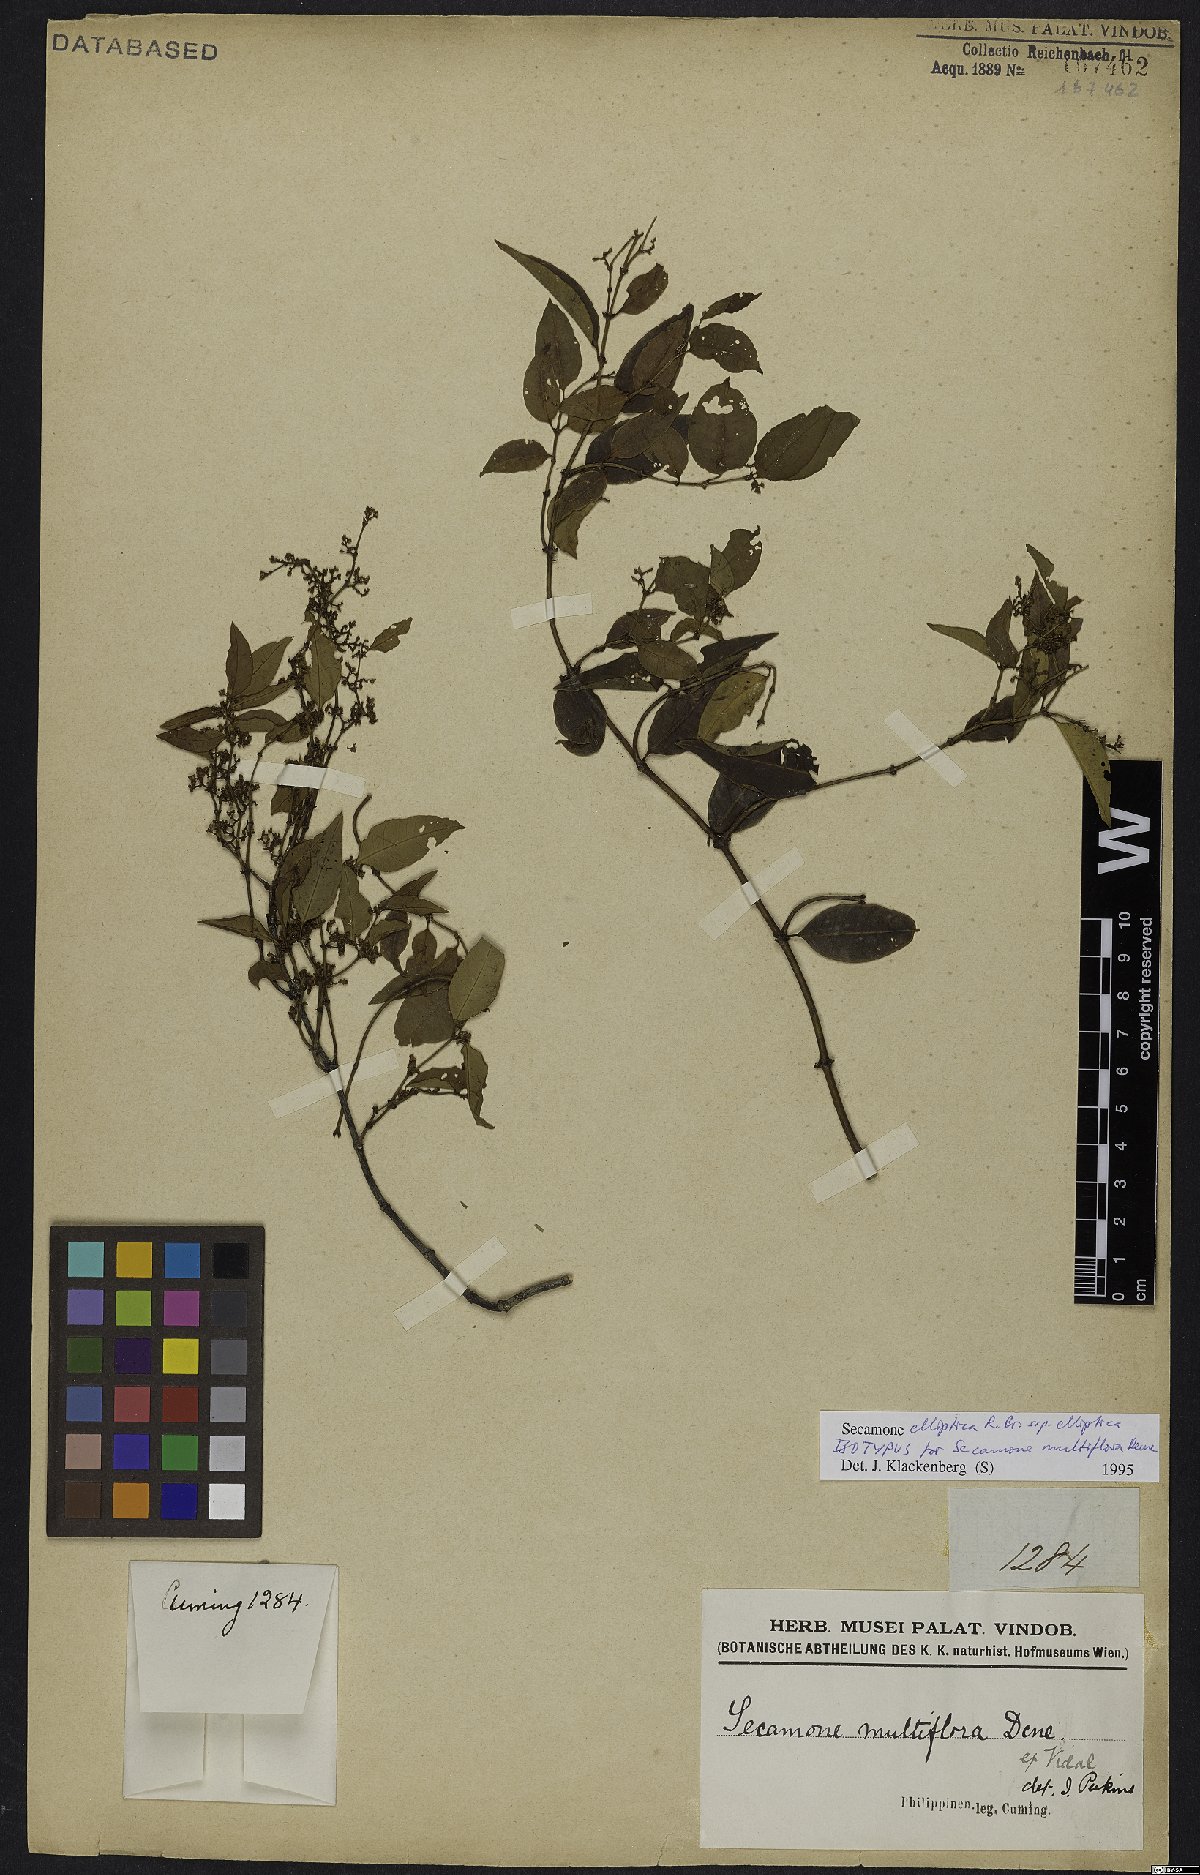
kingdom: Plantae
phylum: Tracheophyta
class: Magnoliopsida
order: Gentianales
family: Apocynaceae
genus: Secamone
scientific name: Secamone elliptica
